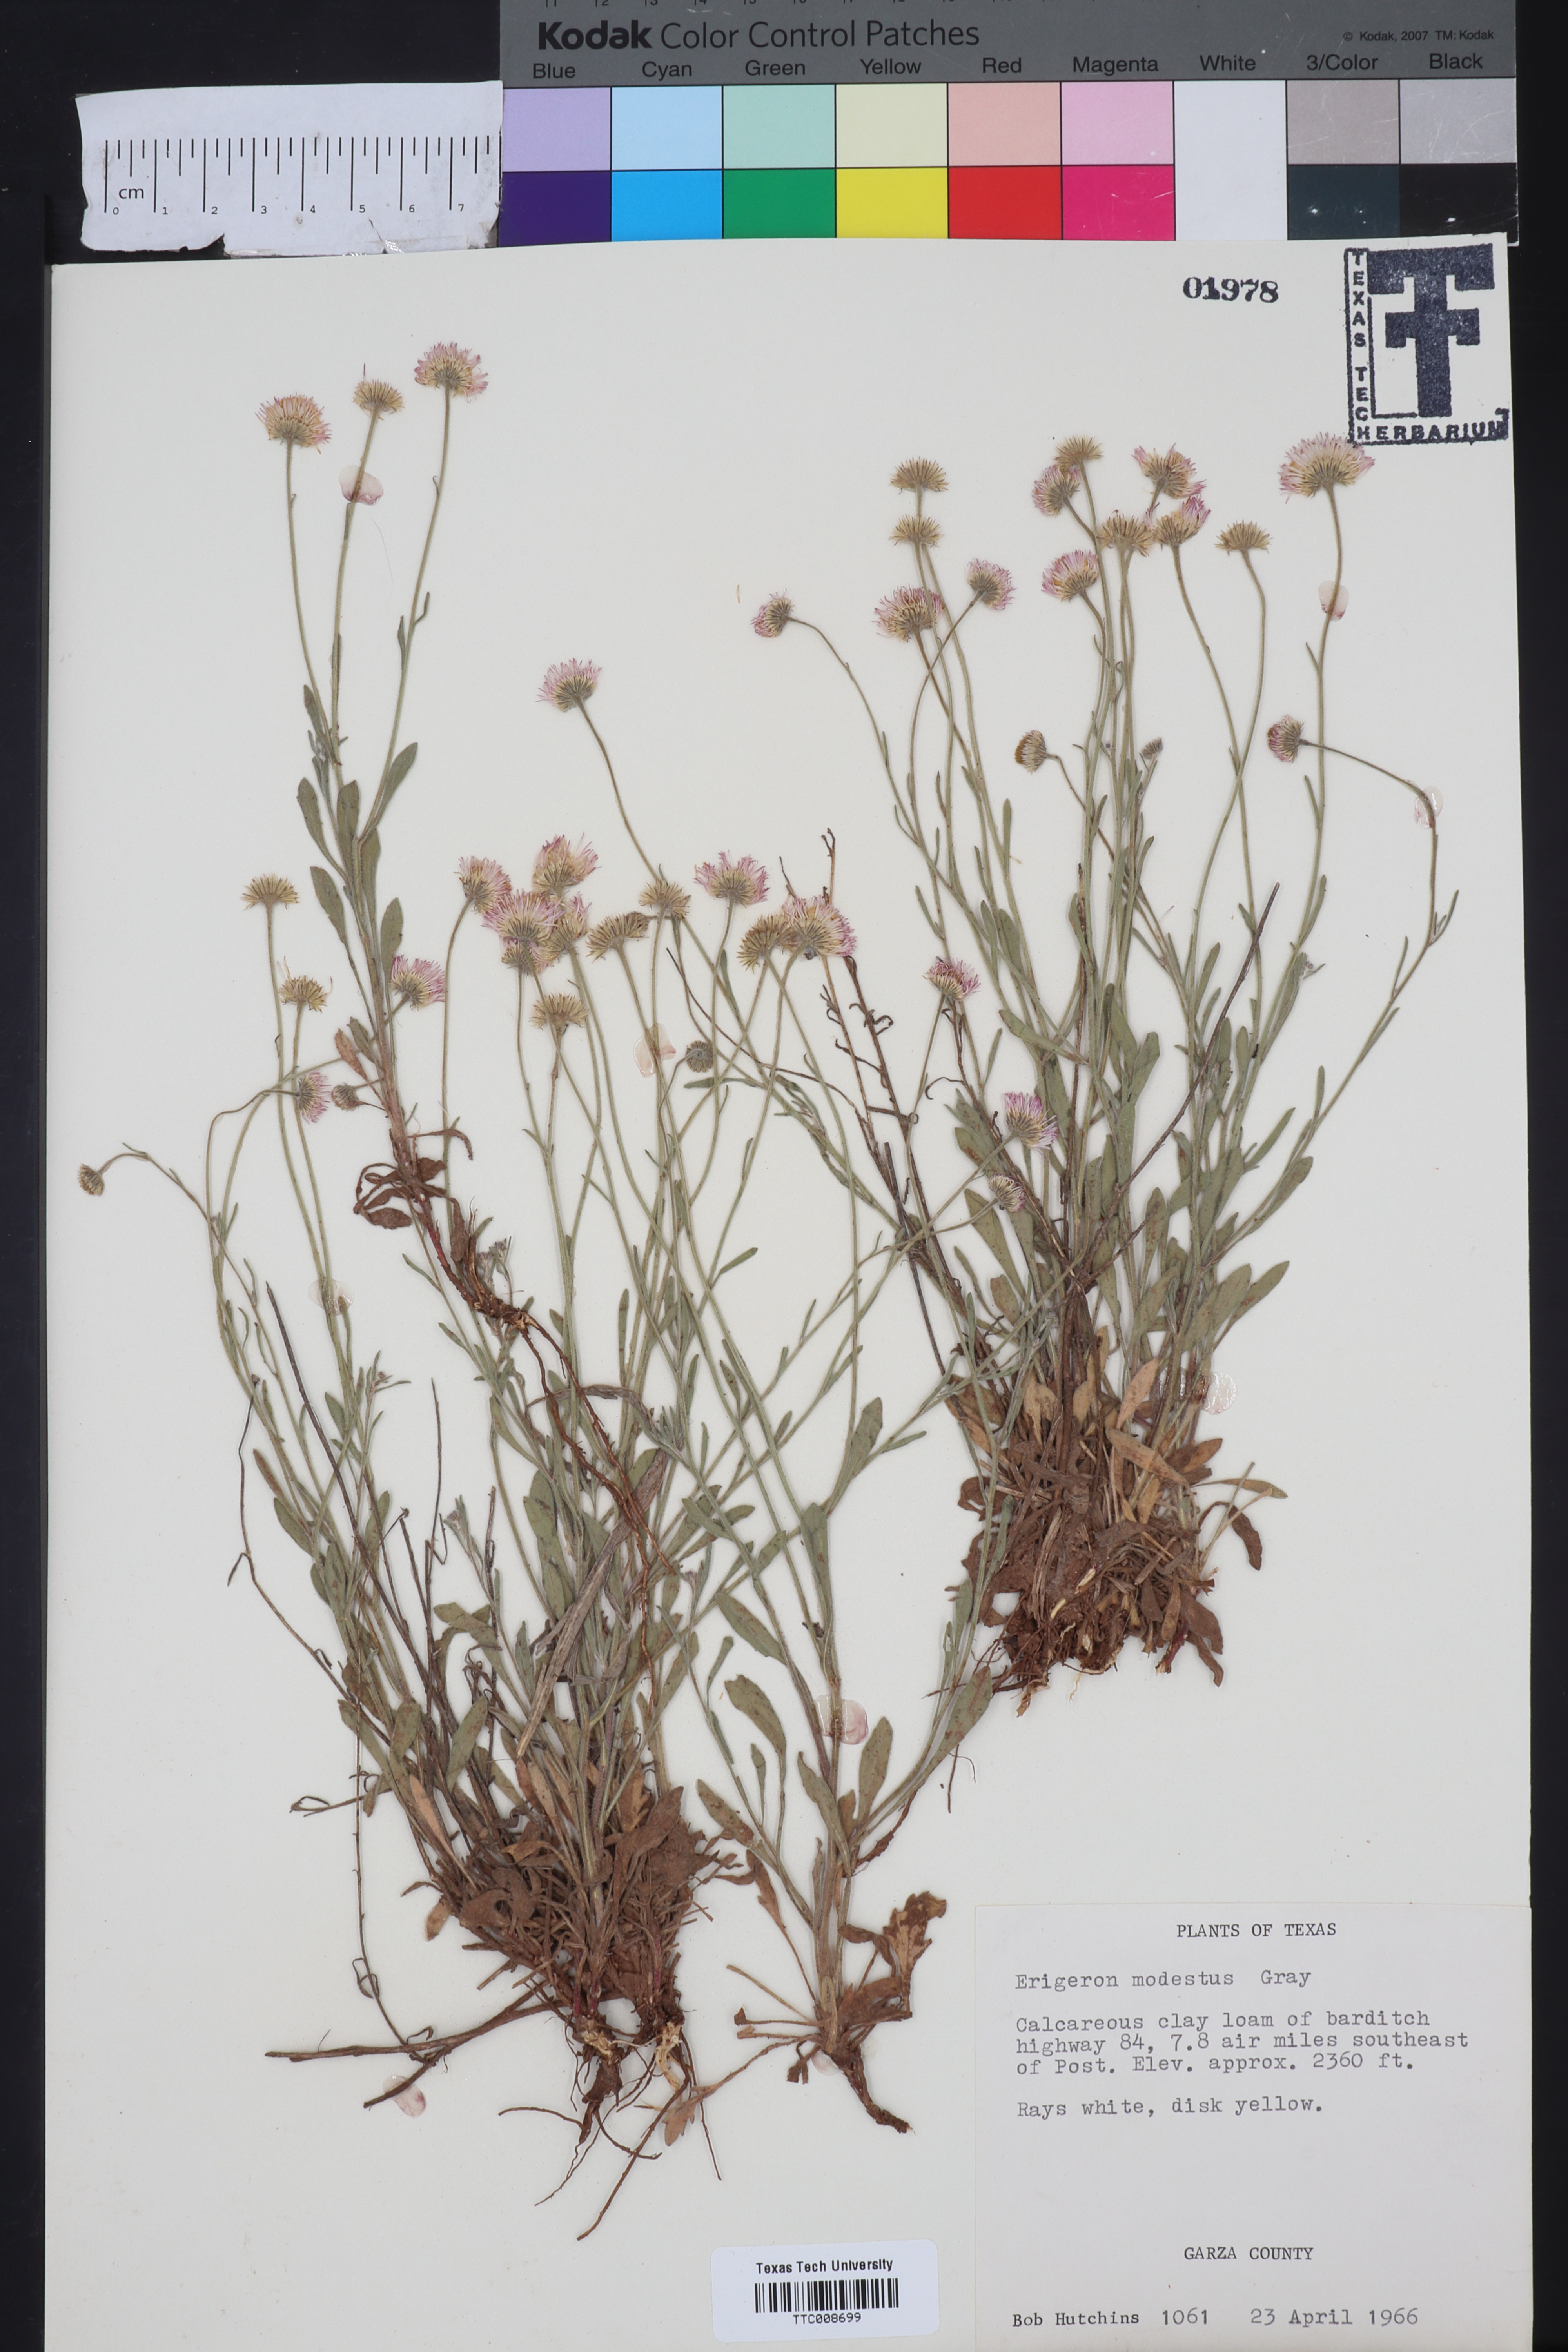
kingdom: Plantae
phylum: Tracheophyta
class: Magnoliopsida
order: Asterales
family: Asteraceae
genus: Erigeron
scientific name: Erigeron modestus
